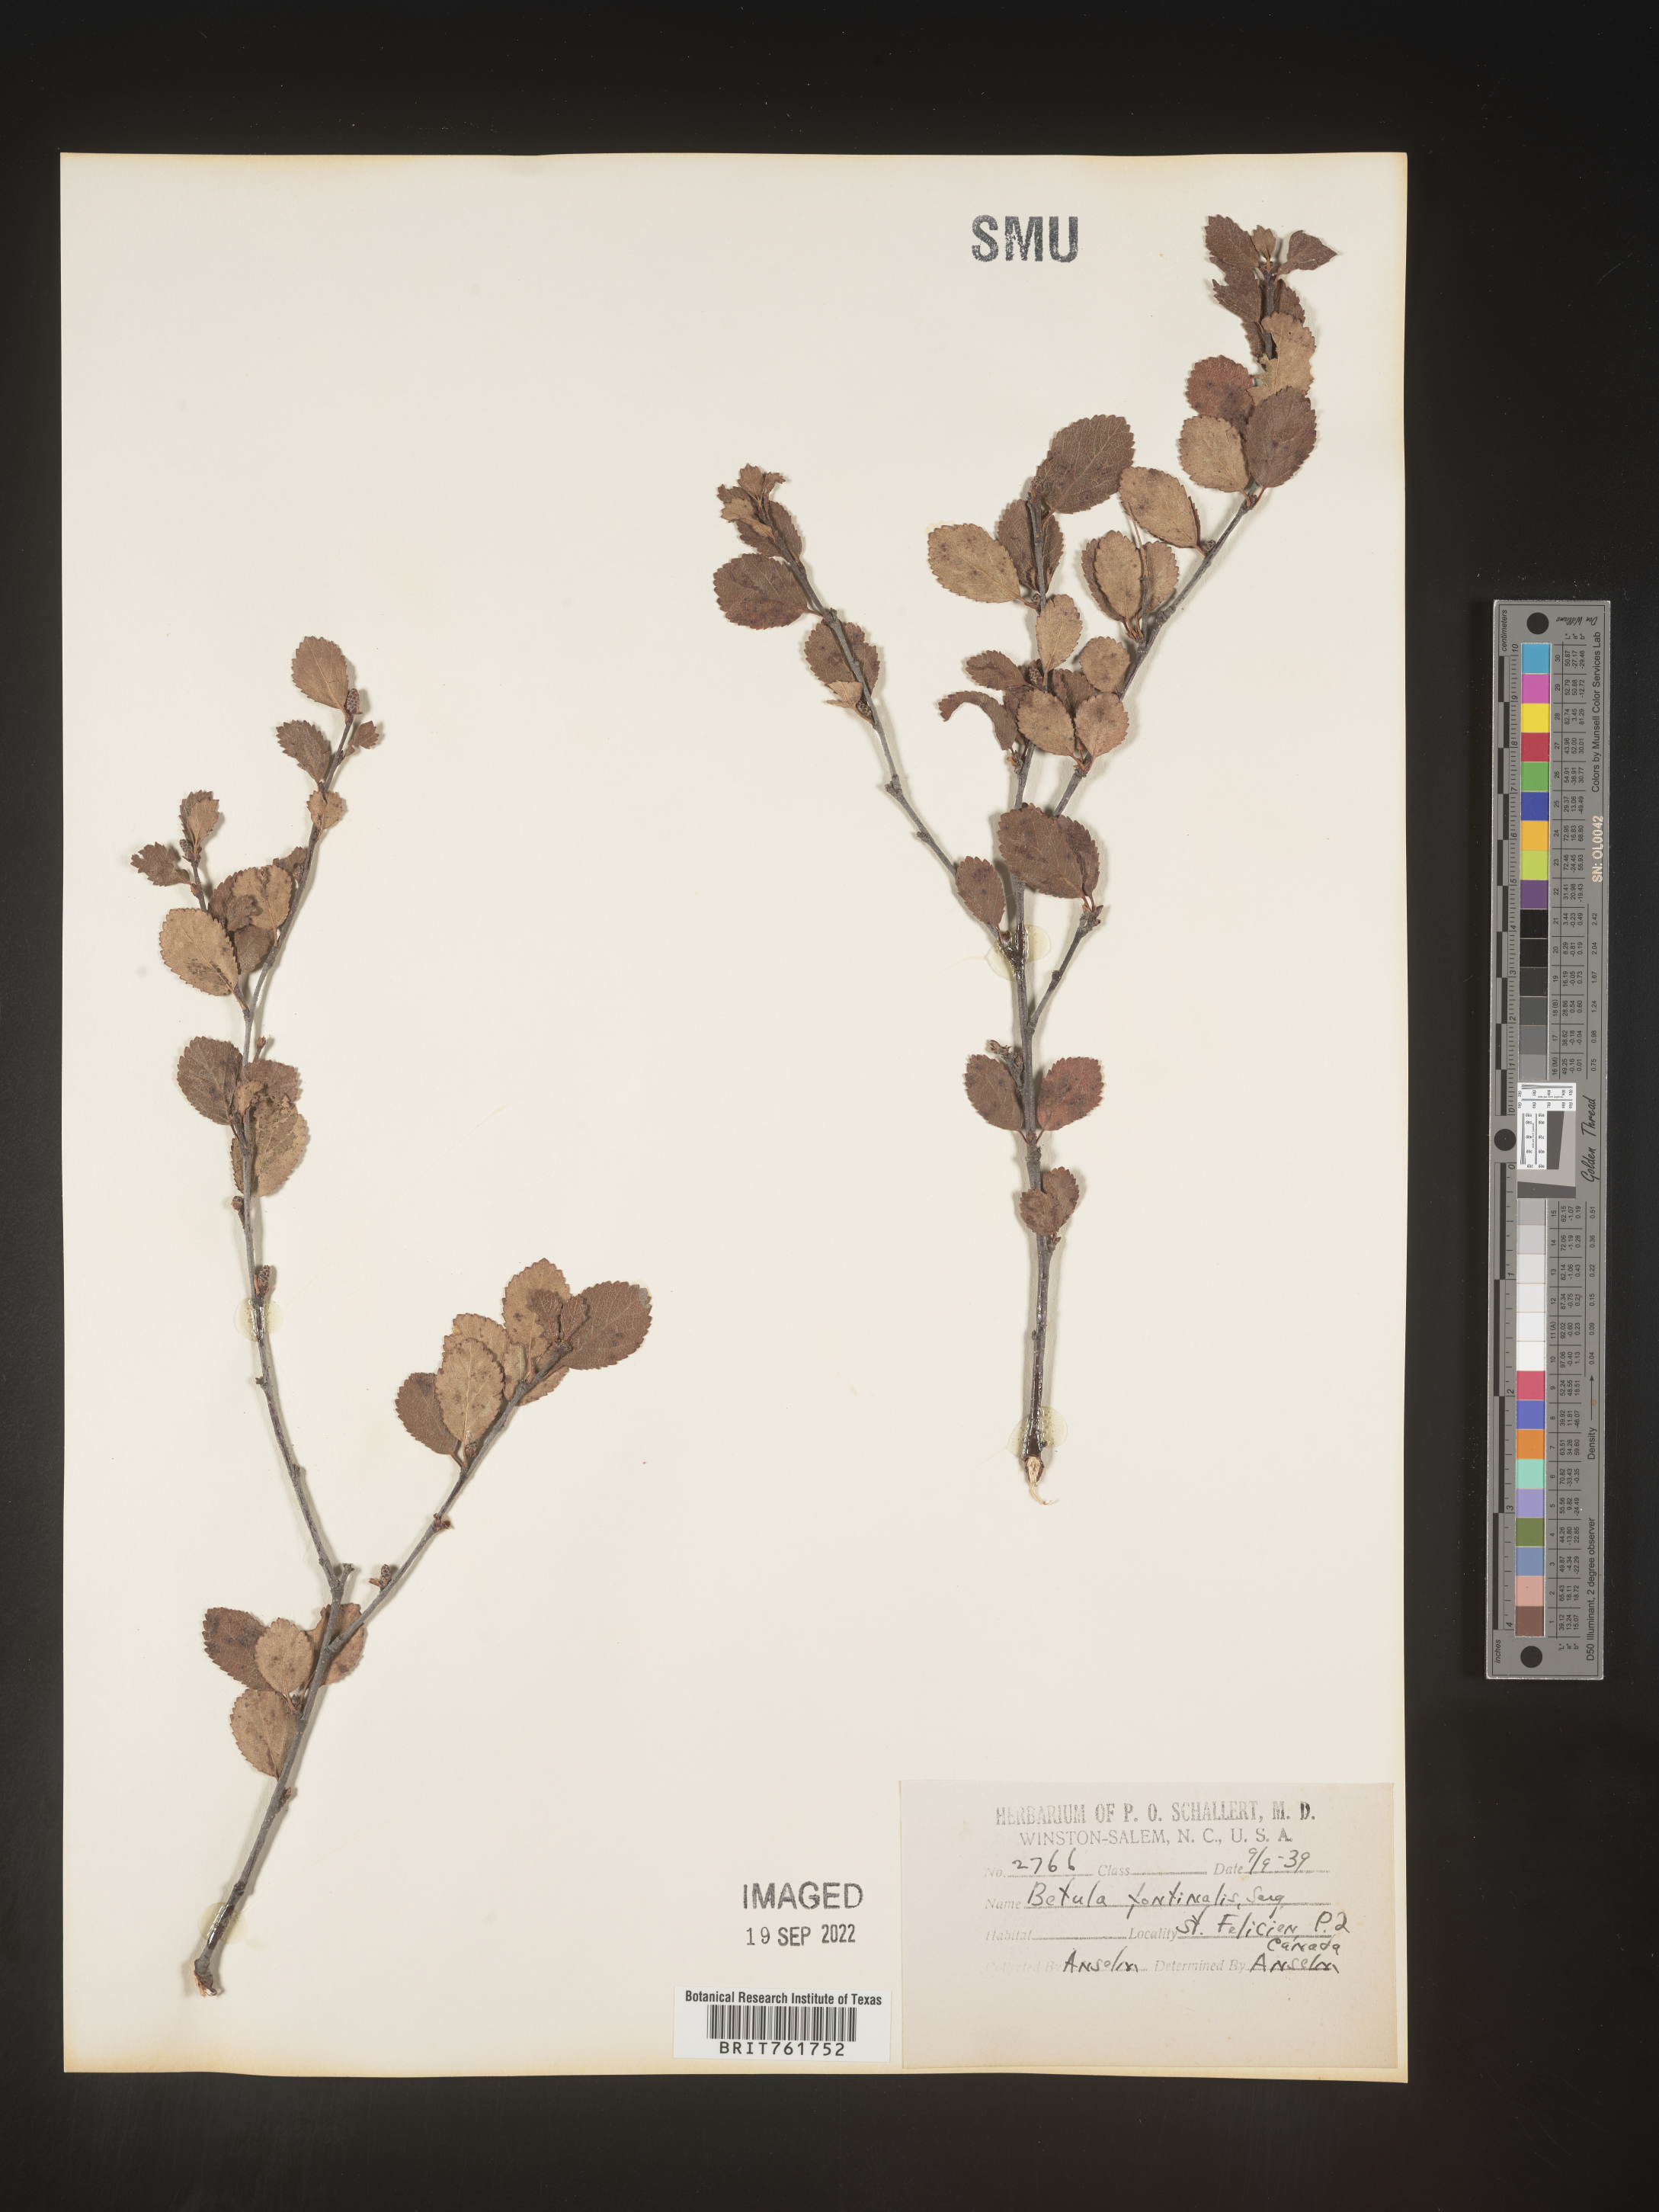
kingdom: Plantae
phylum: Tracheophyta
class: Magnoliopsida
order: Fagales
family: Betulaceae
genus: Betula
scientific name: Betula occidentalis
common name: River birch
